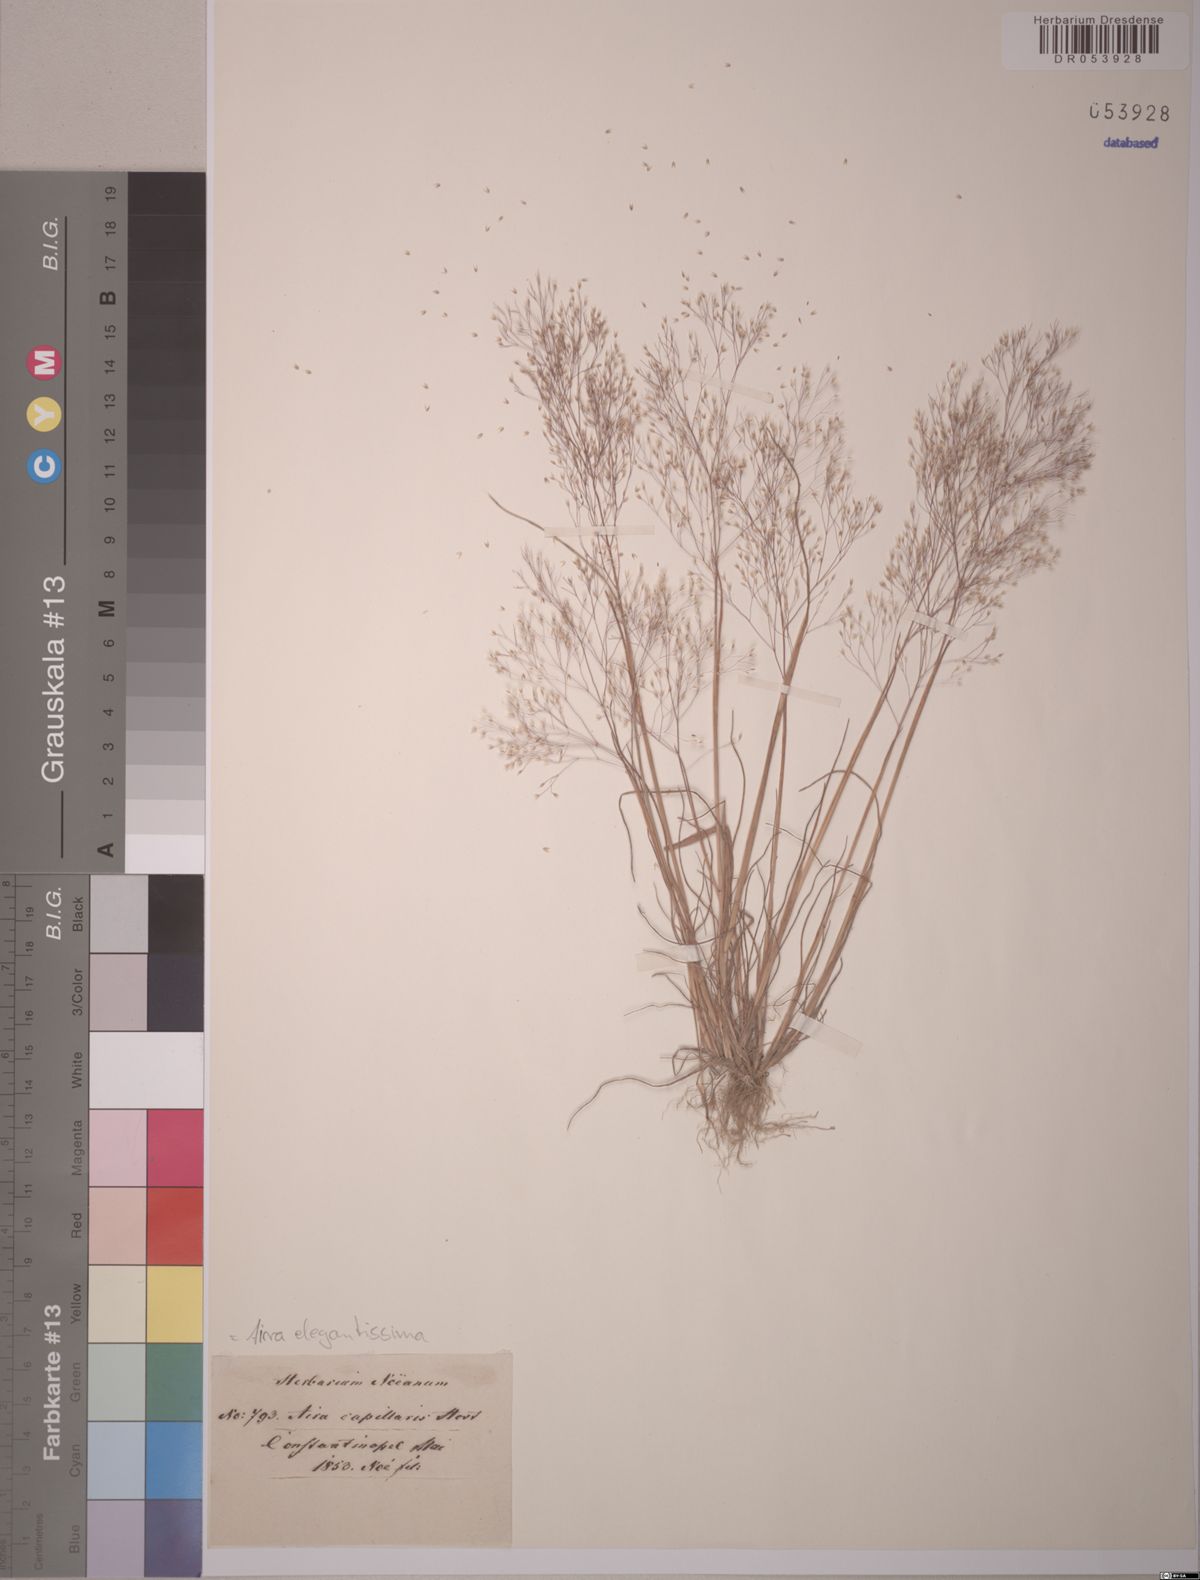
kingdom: Plantae
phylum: Tracheophyta
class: Liliopsida
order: Poales
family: Poaceae
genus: Aira
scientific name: Aira elegans
